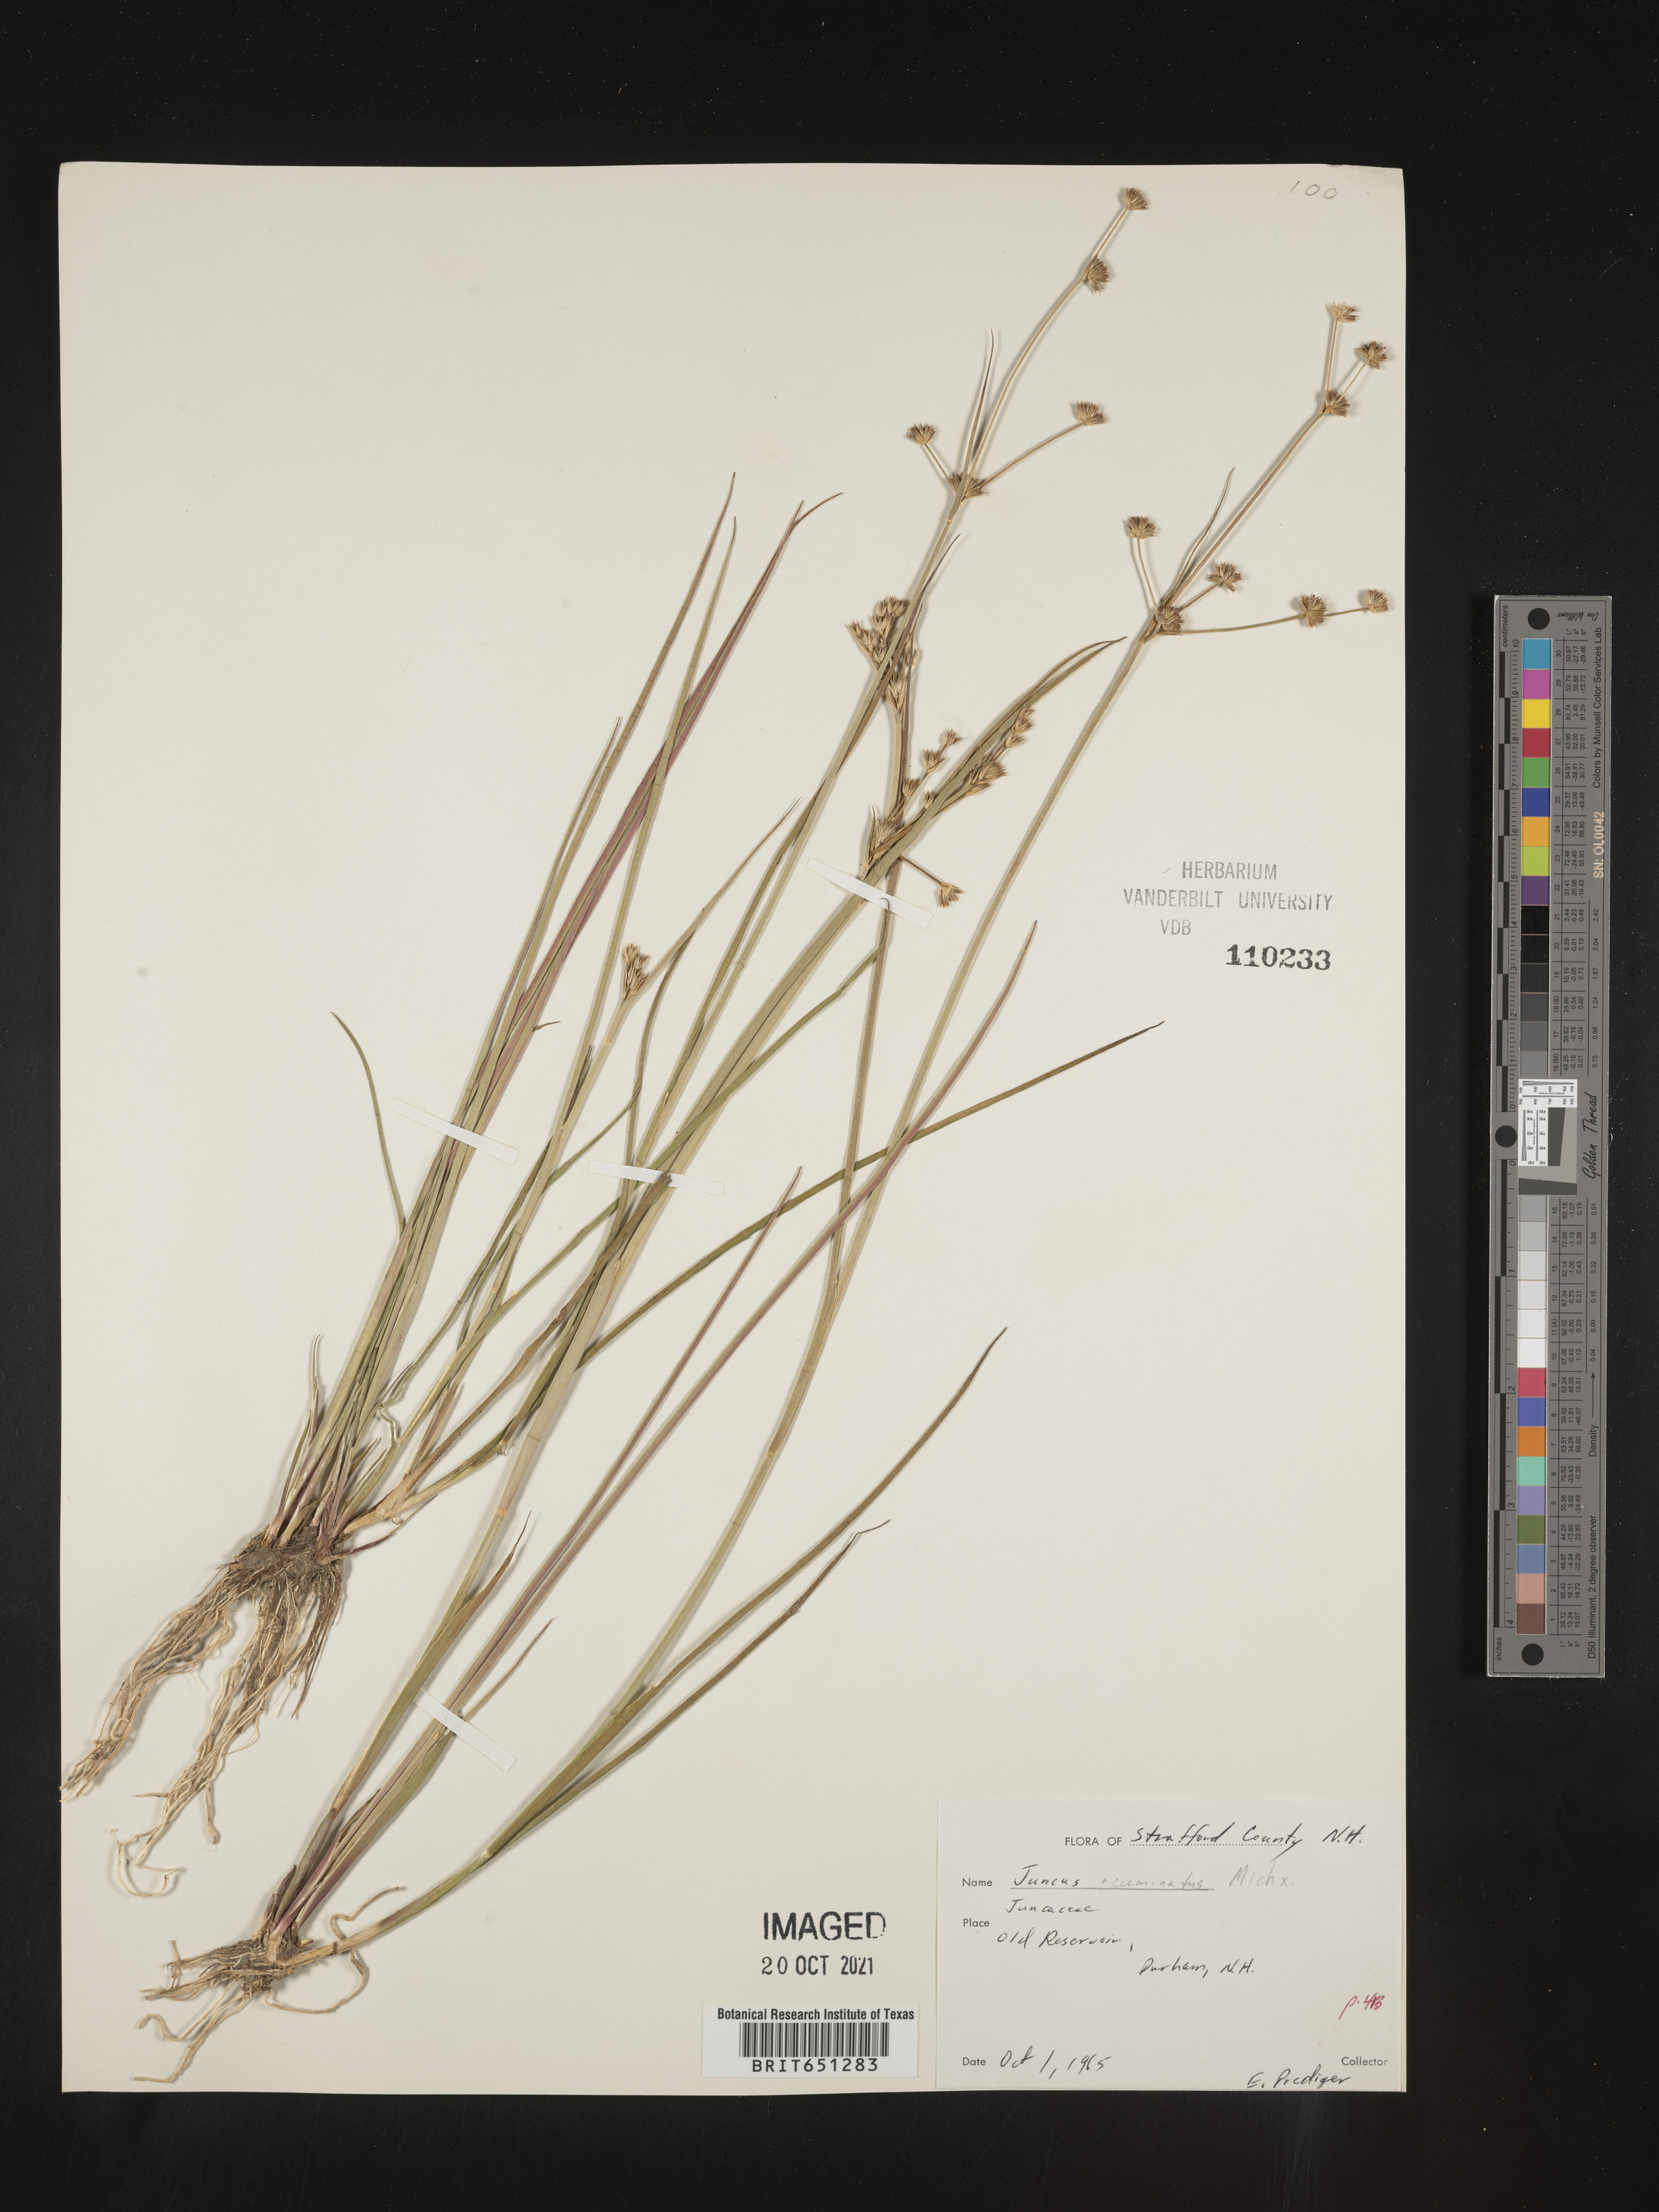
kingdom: Plantae
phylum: Tracheophyta
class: Liliopsida
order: Poales
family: Juncaceae
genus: Juncus
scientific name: Juncus acuminatus
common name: Knotty-leaved rush
